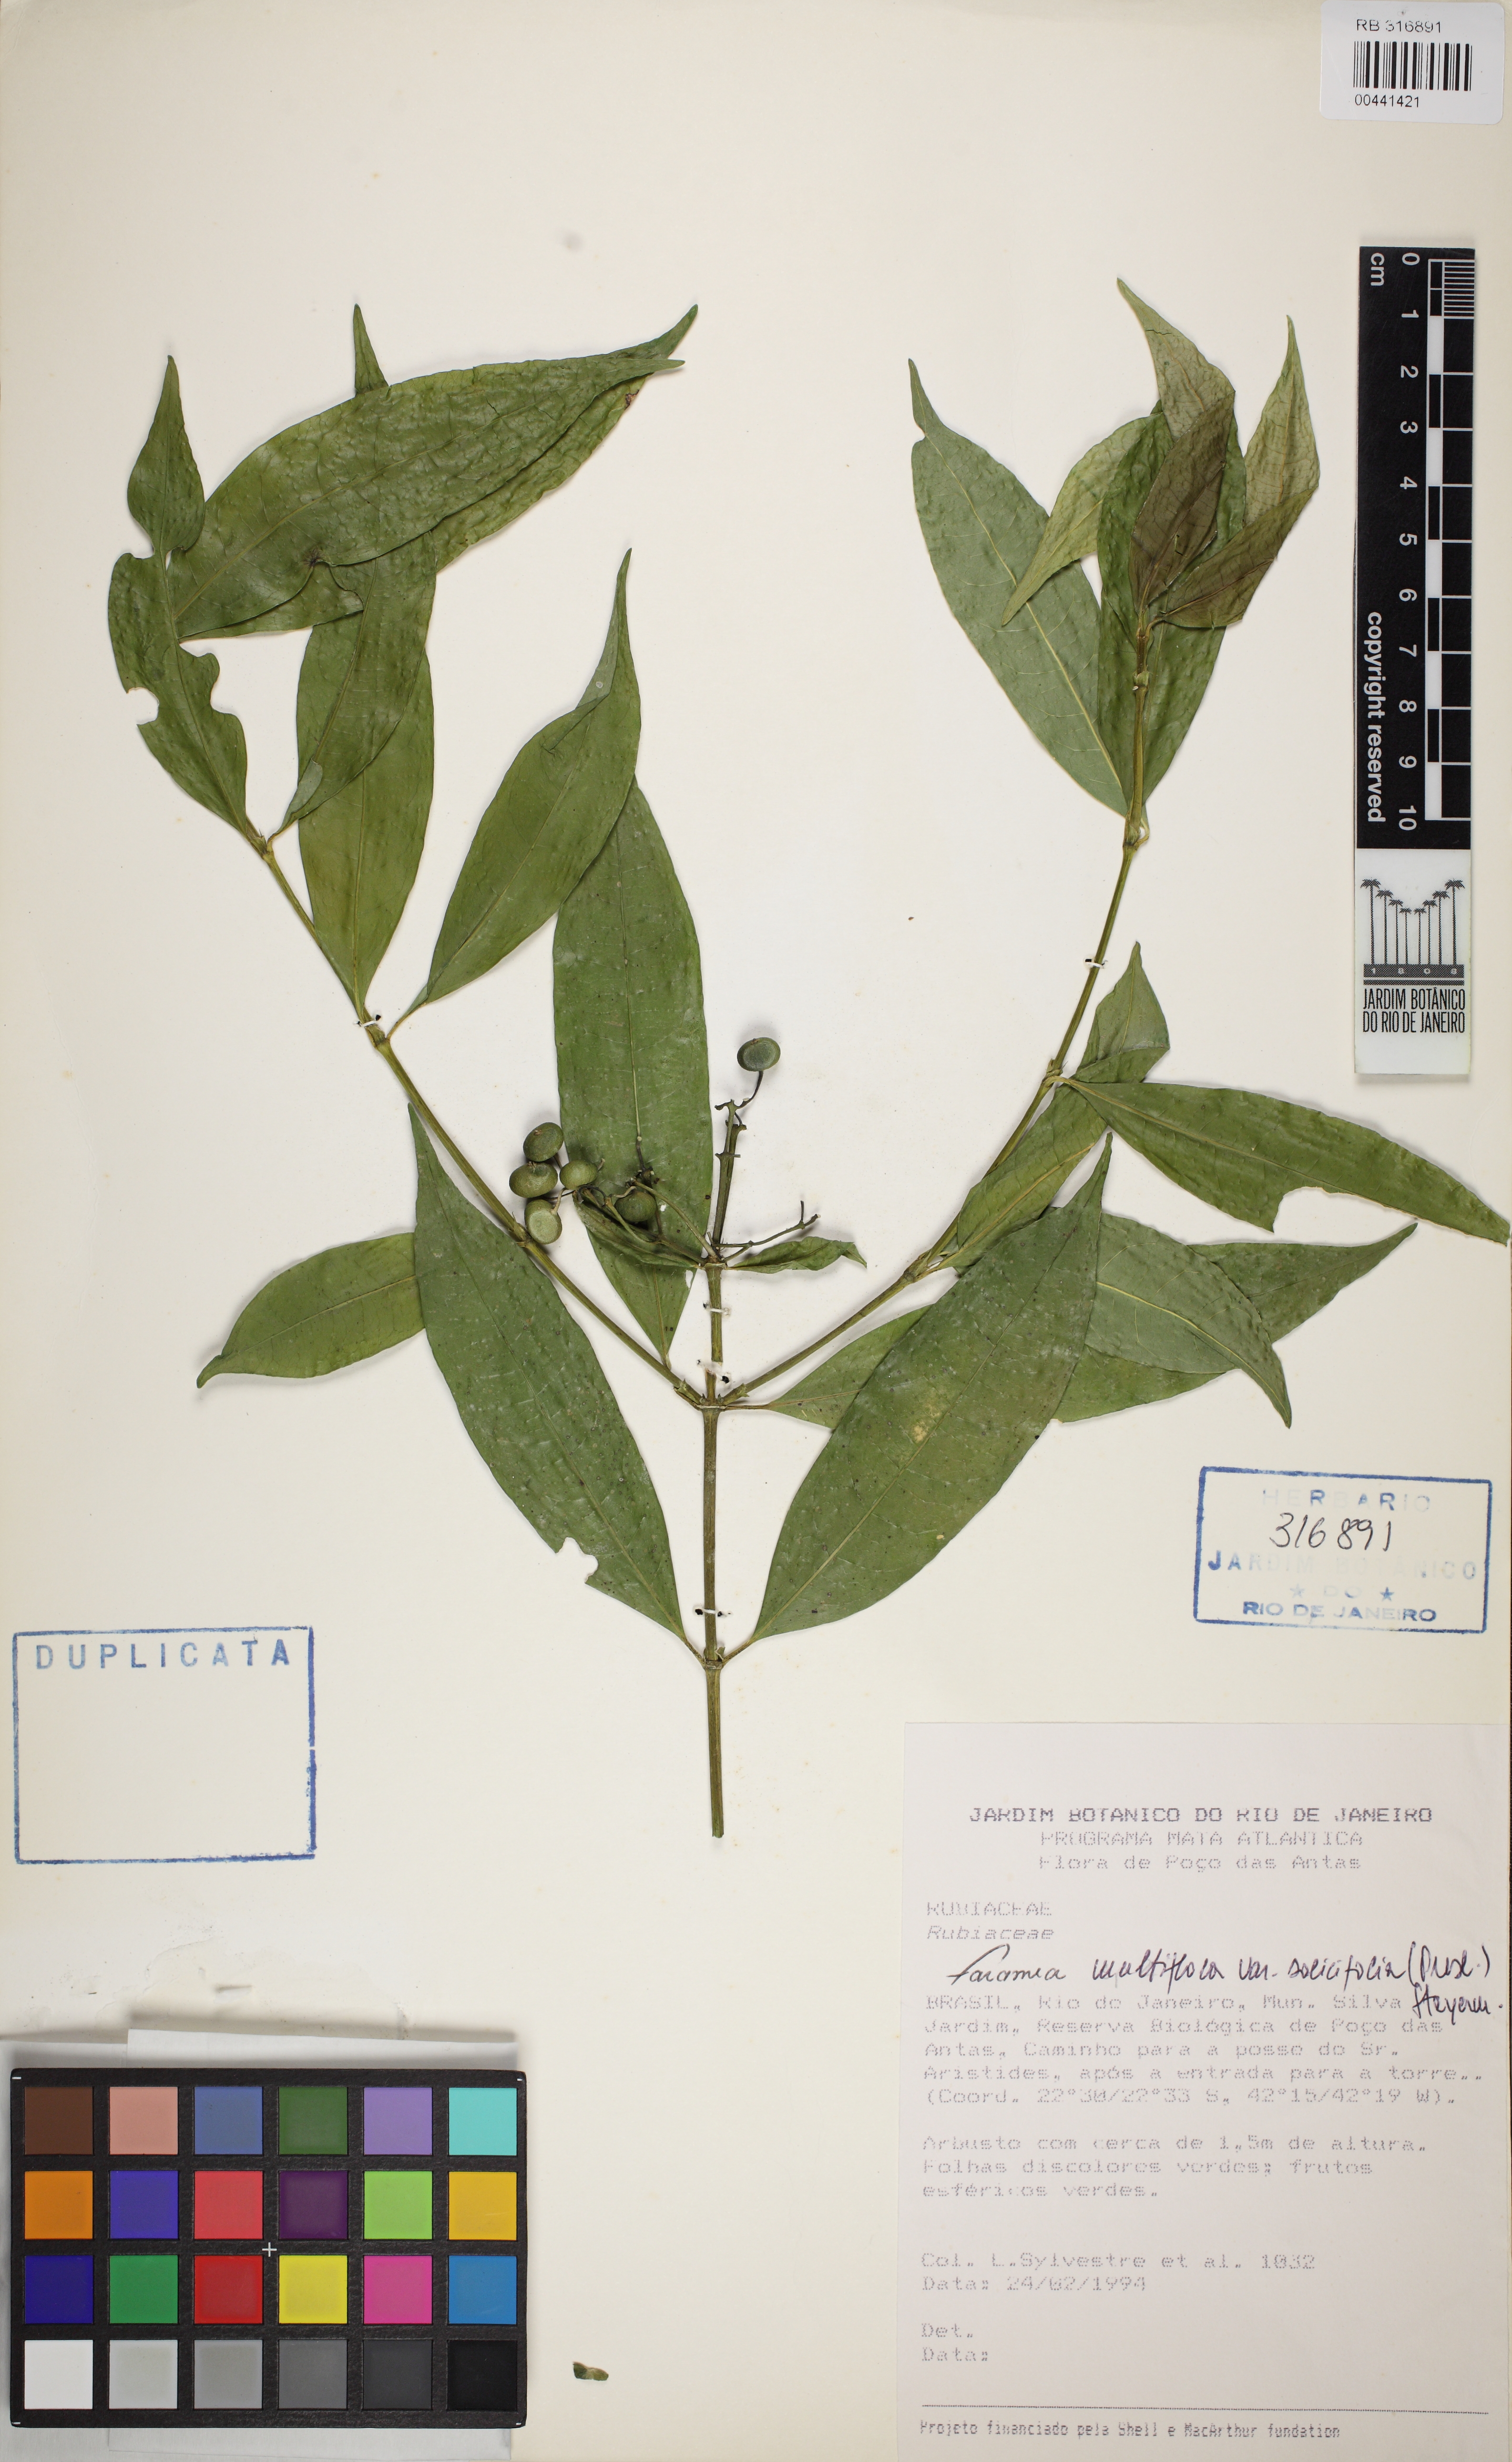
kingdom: Plantae
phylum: Tracheophyta
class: Magnoliopsida
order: Gentianales
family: Rubiaceae
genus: Faramea
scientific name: Faramea multiflora
